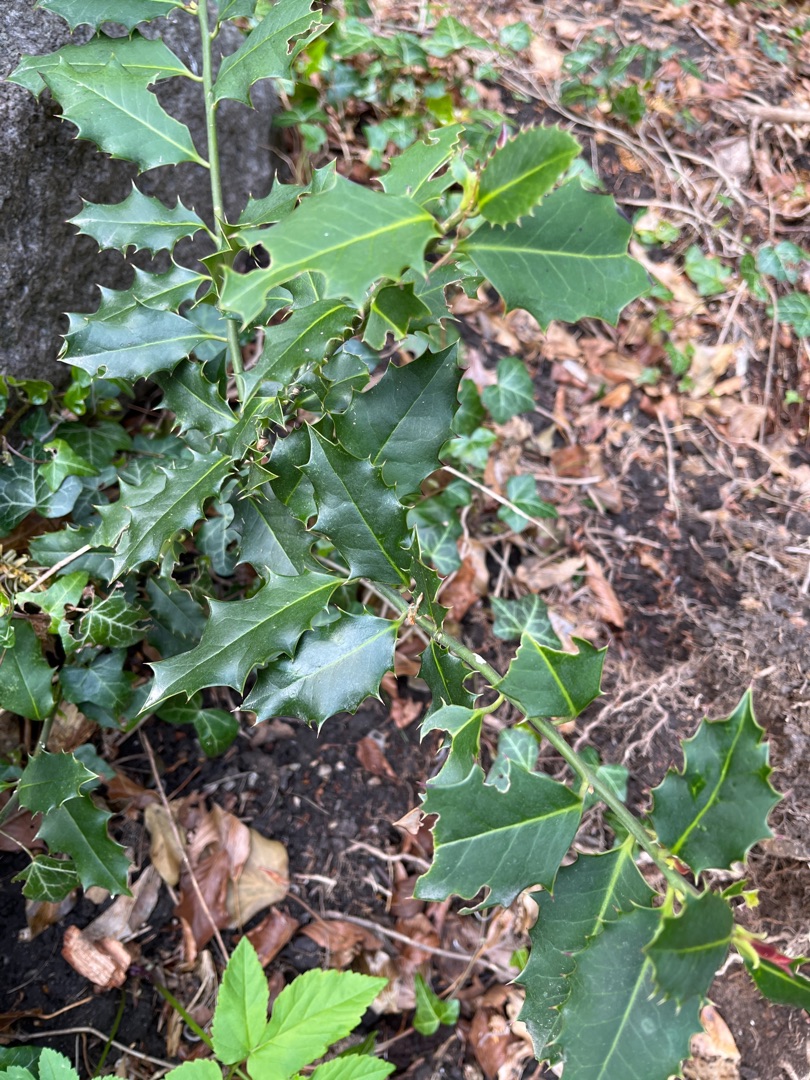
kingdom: Plantae
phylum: Tracheophyta
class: Magnoliopsida
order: Aquifoliales
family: Aquifoliaceae
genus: Ilex
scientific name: Ilex aquifolium
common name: Kristtorn
